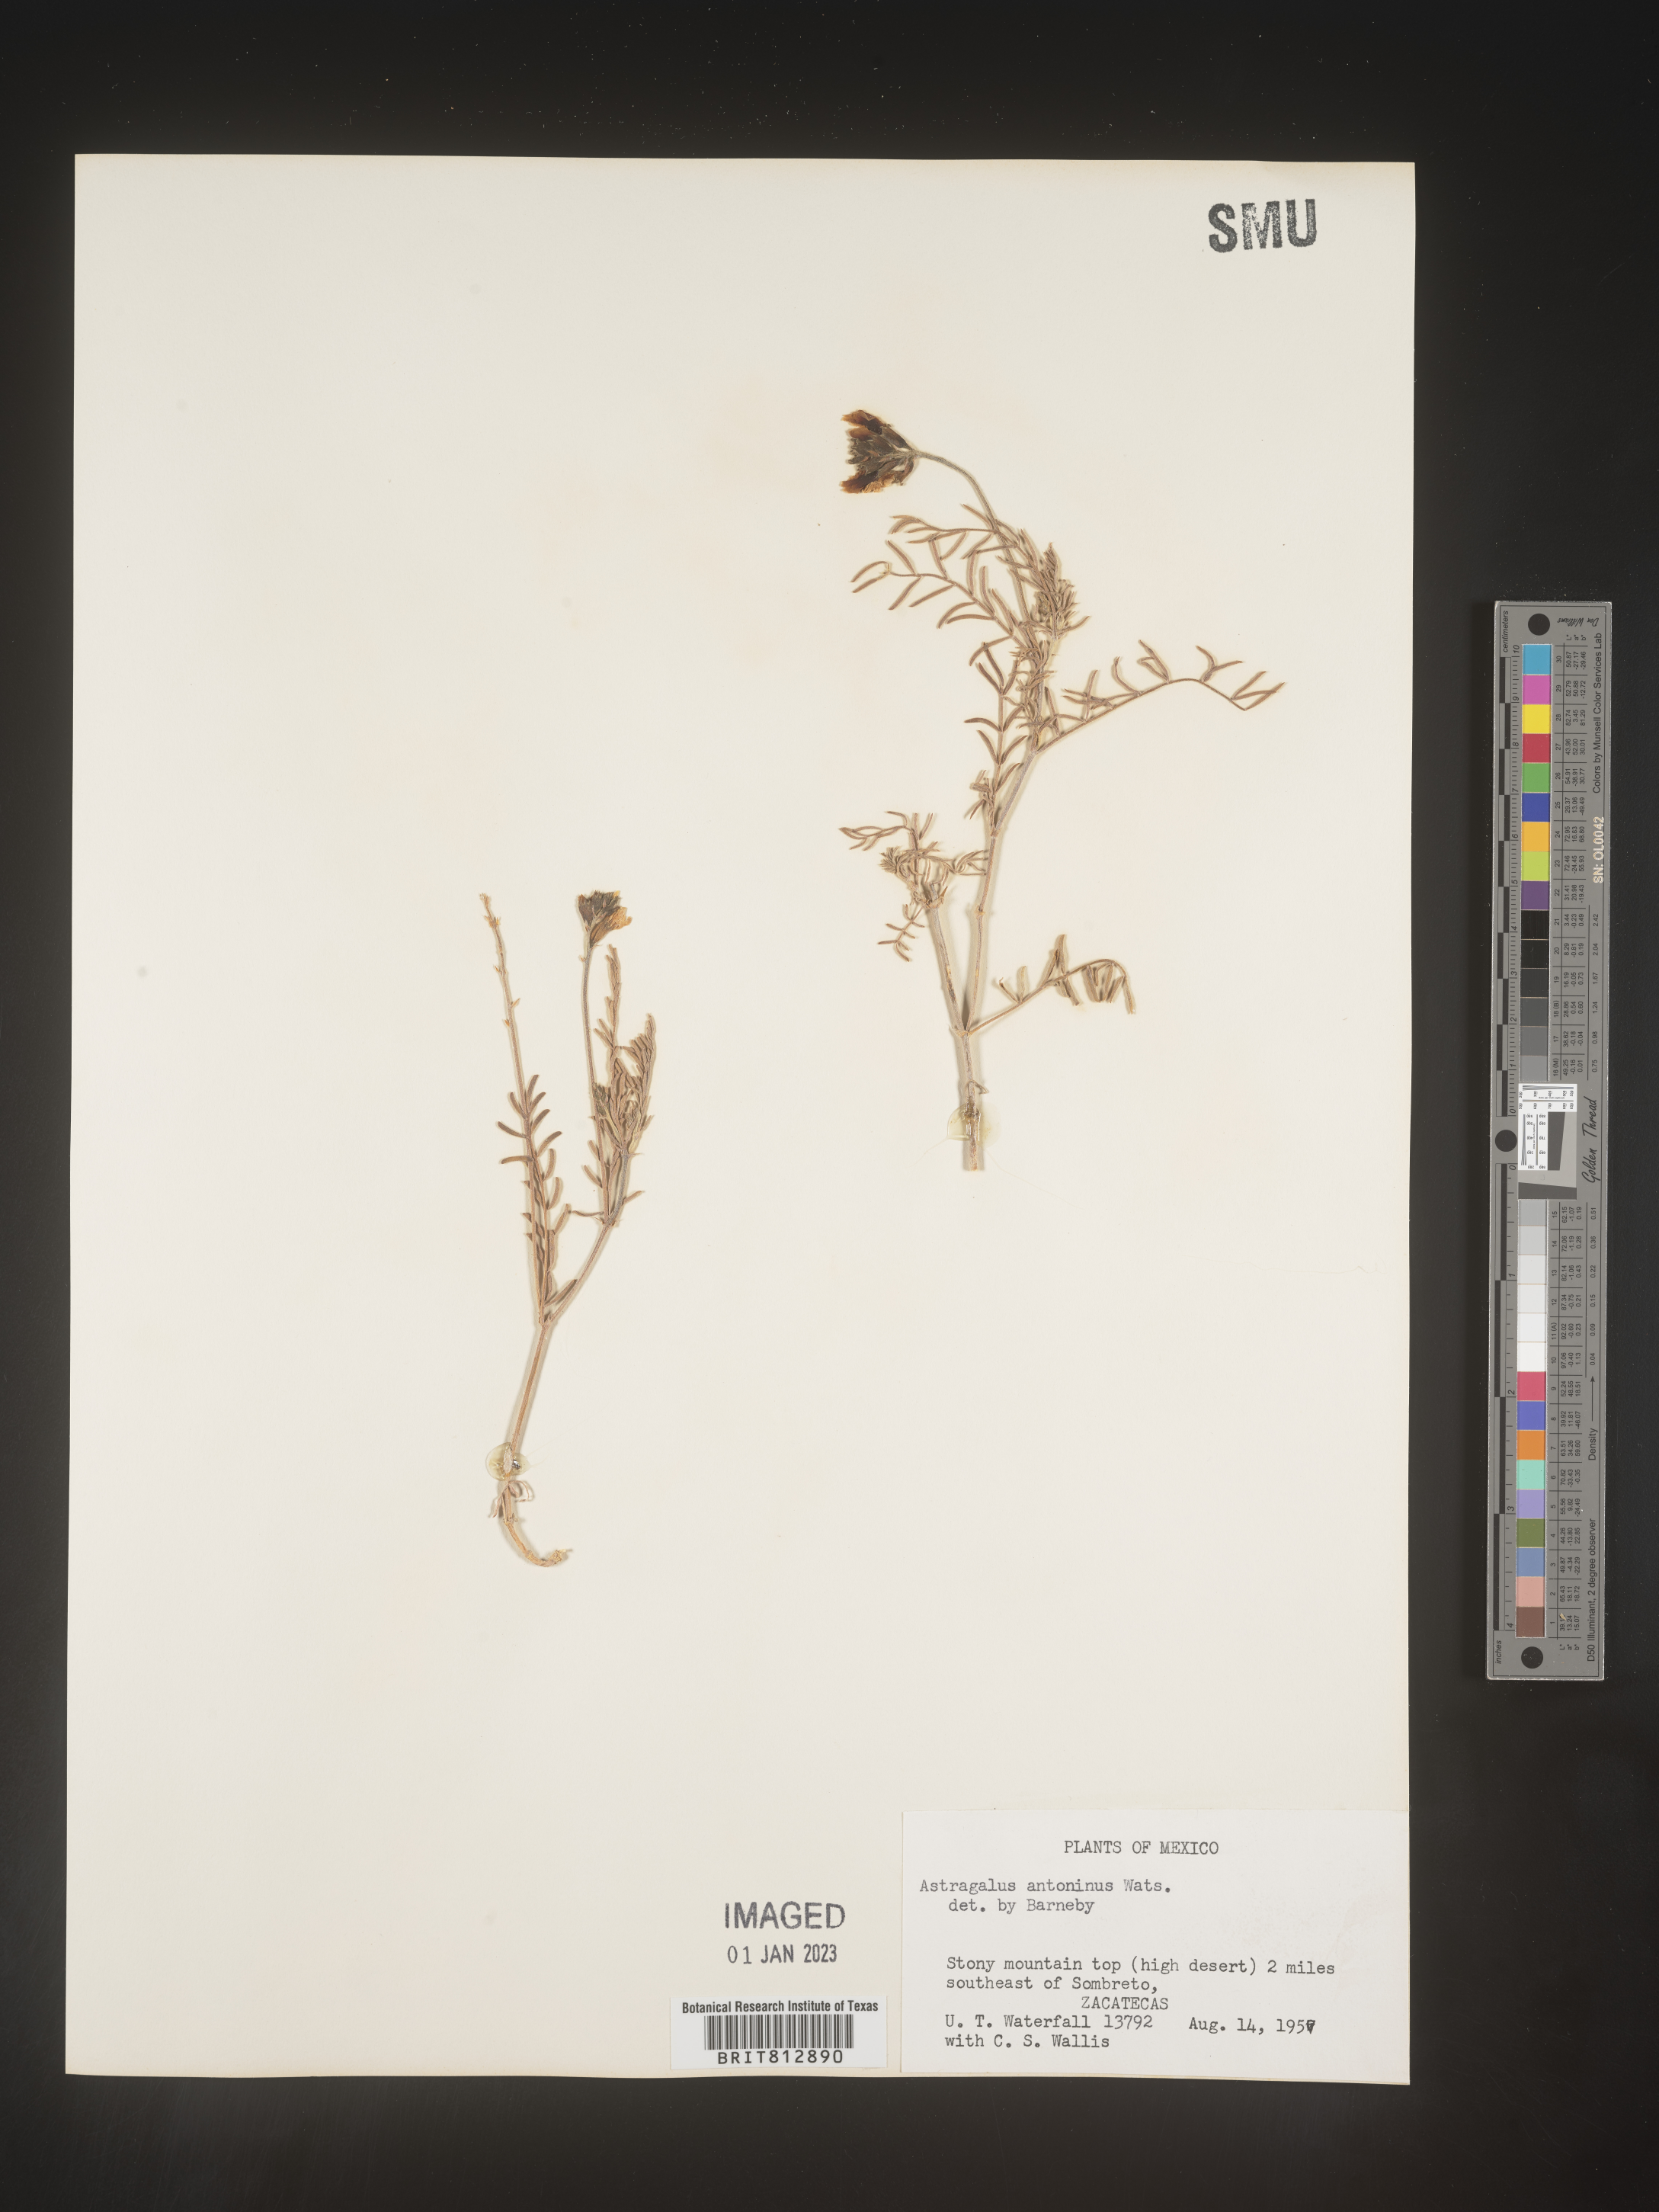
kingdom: Plantae
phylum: Tracheophyta
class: Magnoliopsida
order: Fabales
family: Fabaceae
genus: Astragalus
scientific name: Astragalus
